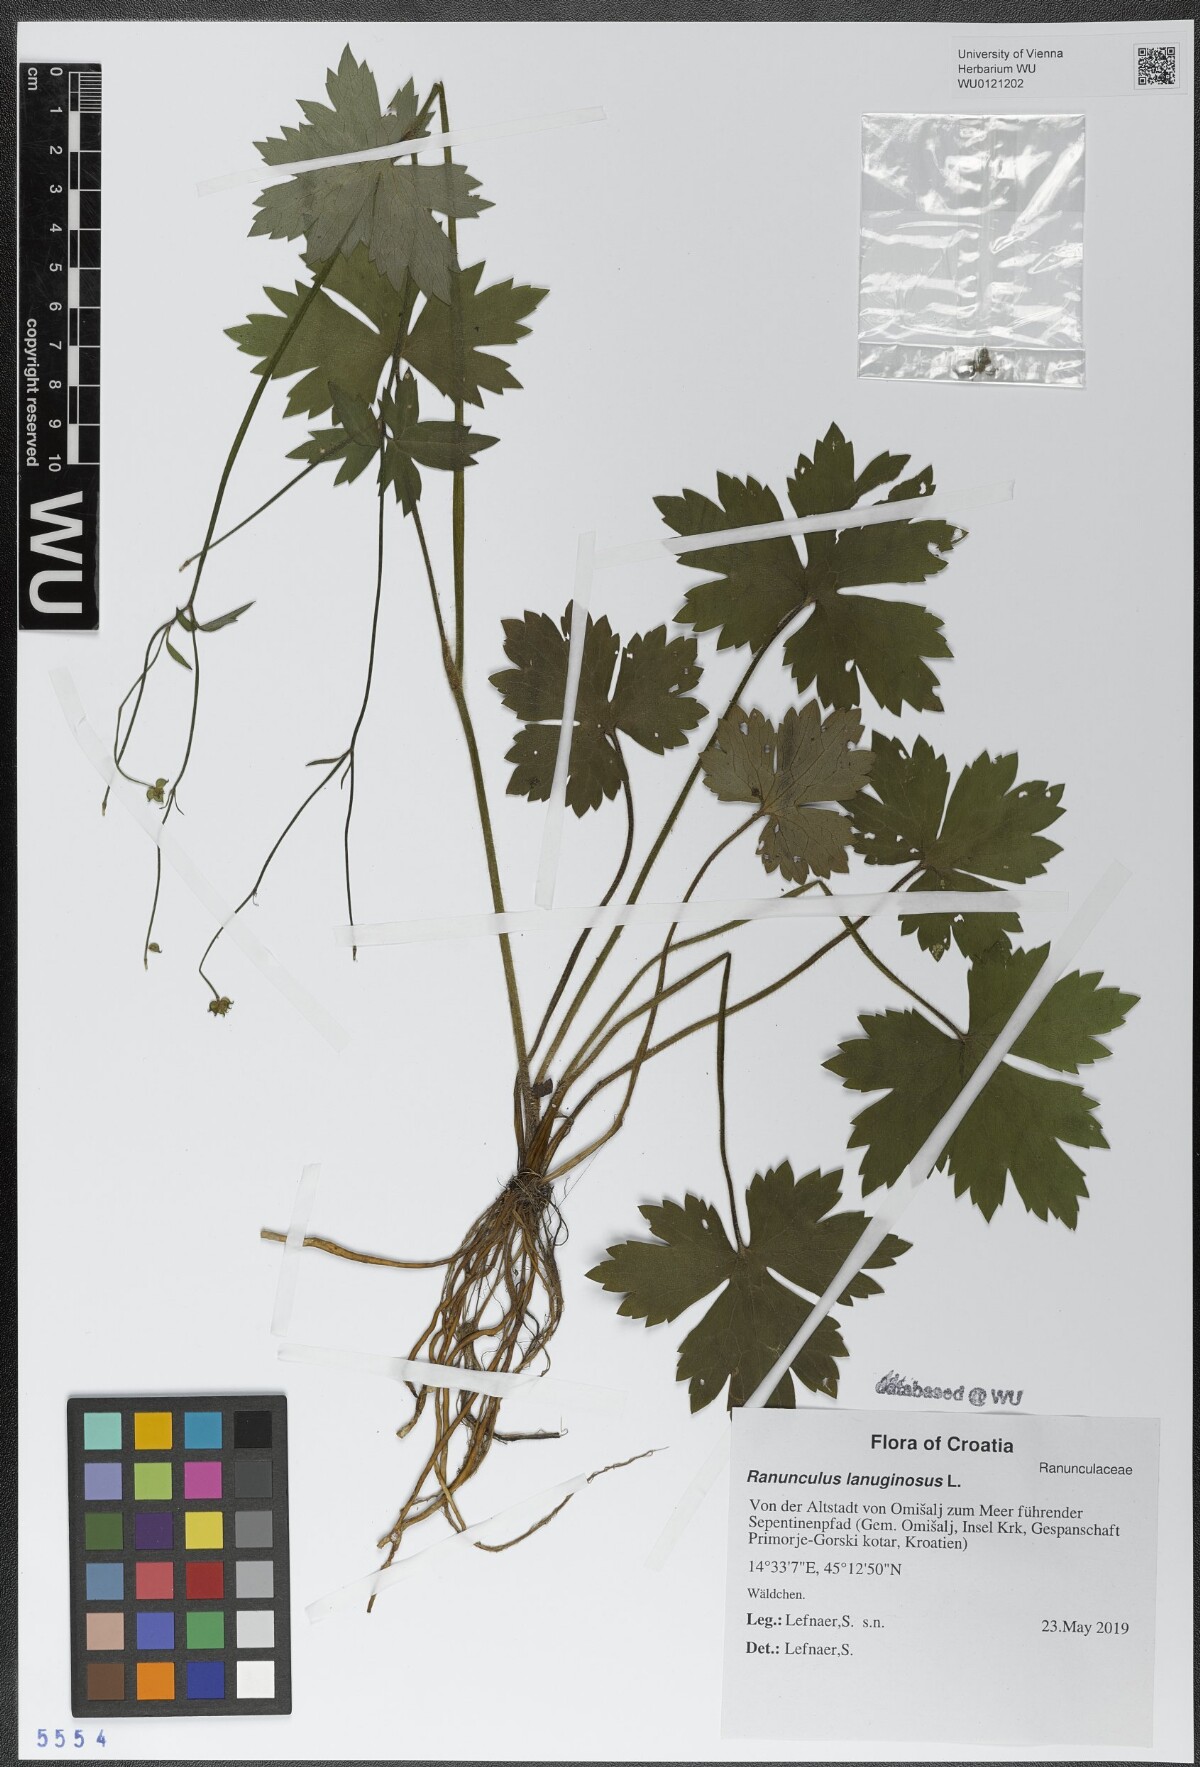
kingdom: Plantae
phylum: Tracheophyta
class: Magnoliopsida
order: Ranunculales
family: Ranunculaceae
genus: Ranunculus
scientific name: Ranunculus lanuginosus
